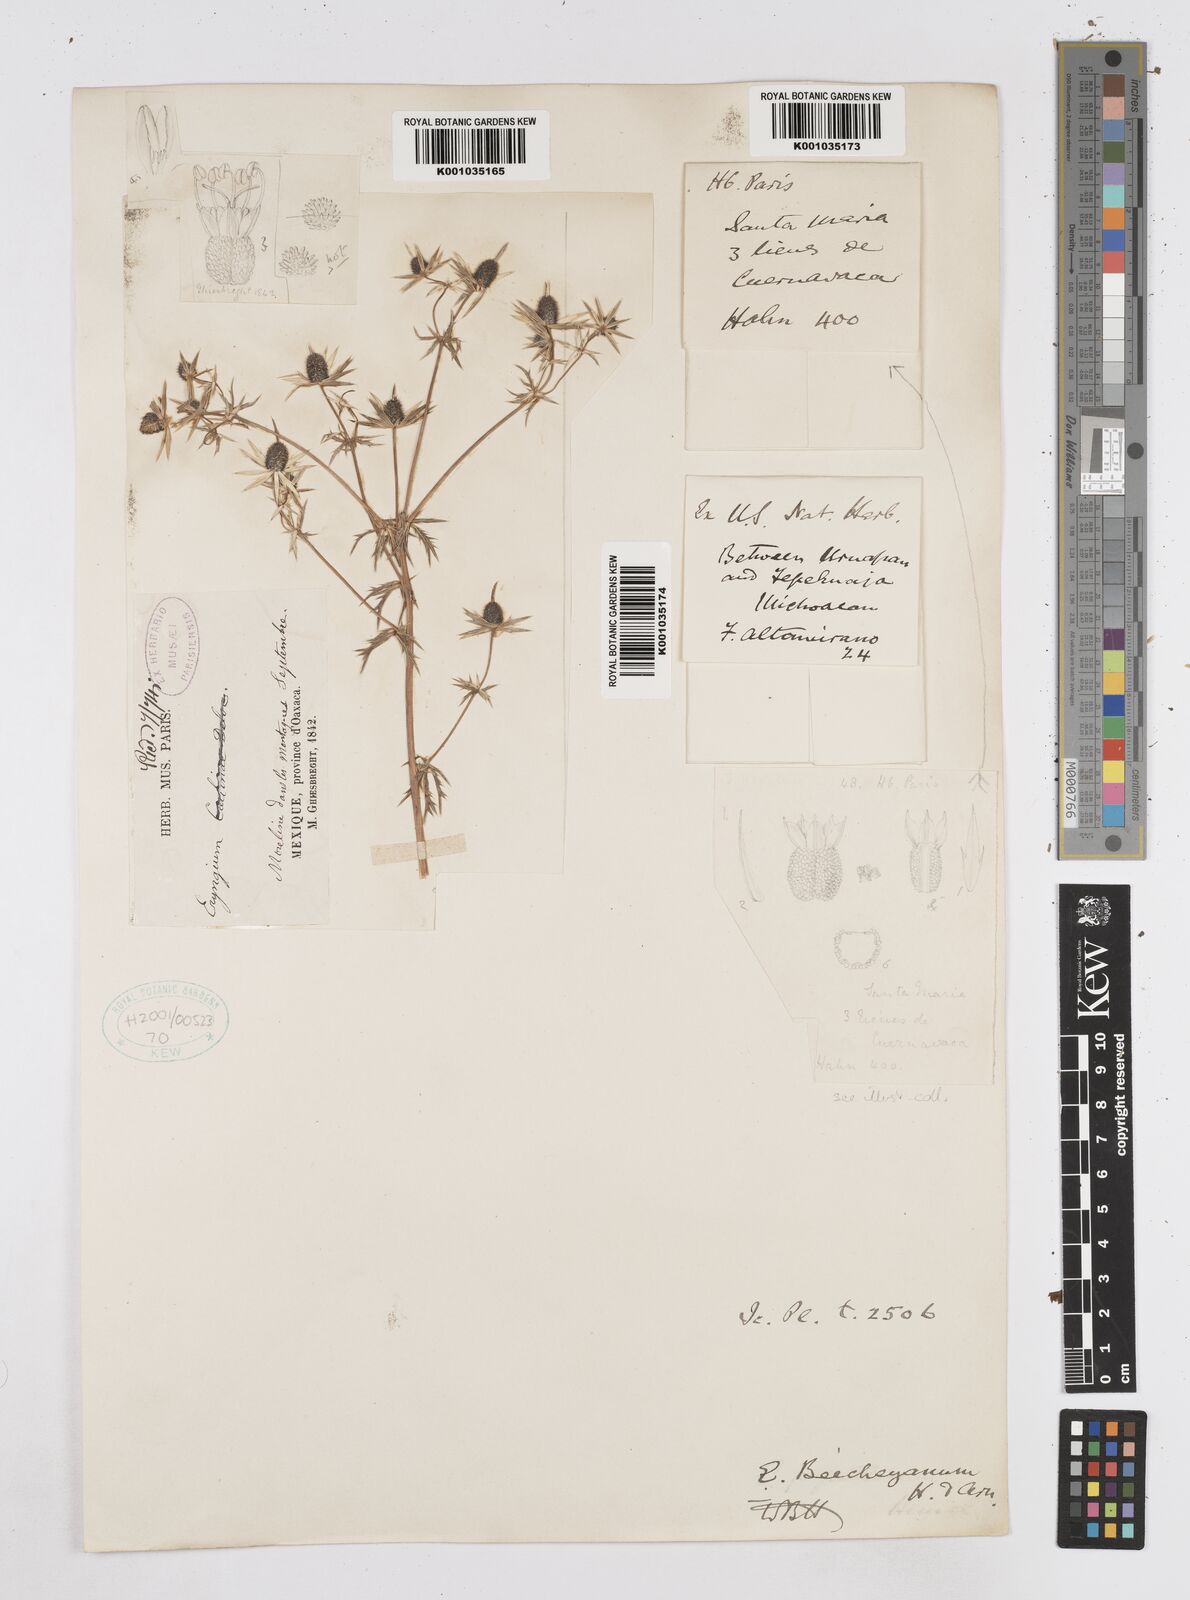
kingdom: Plantae
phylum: Tracheophyta
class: Magnoliopsida
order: Apiales
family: Apiaceae
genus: Eryngium
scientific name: Eryngium beecheyanum
